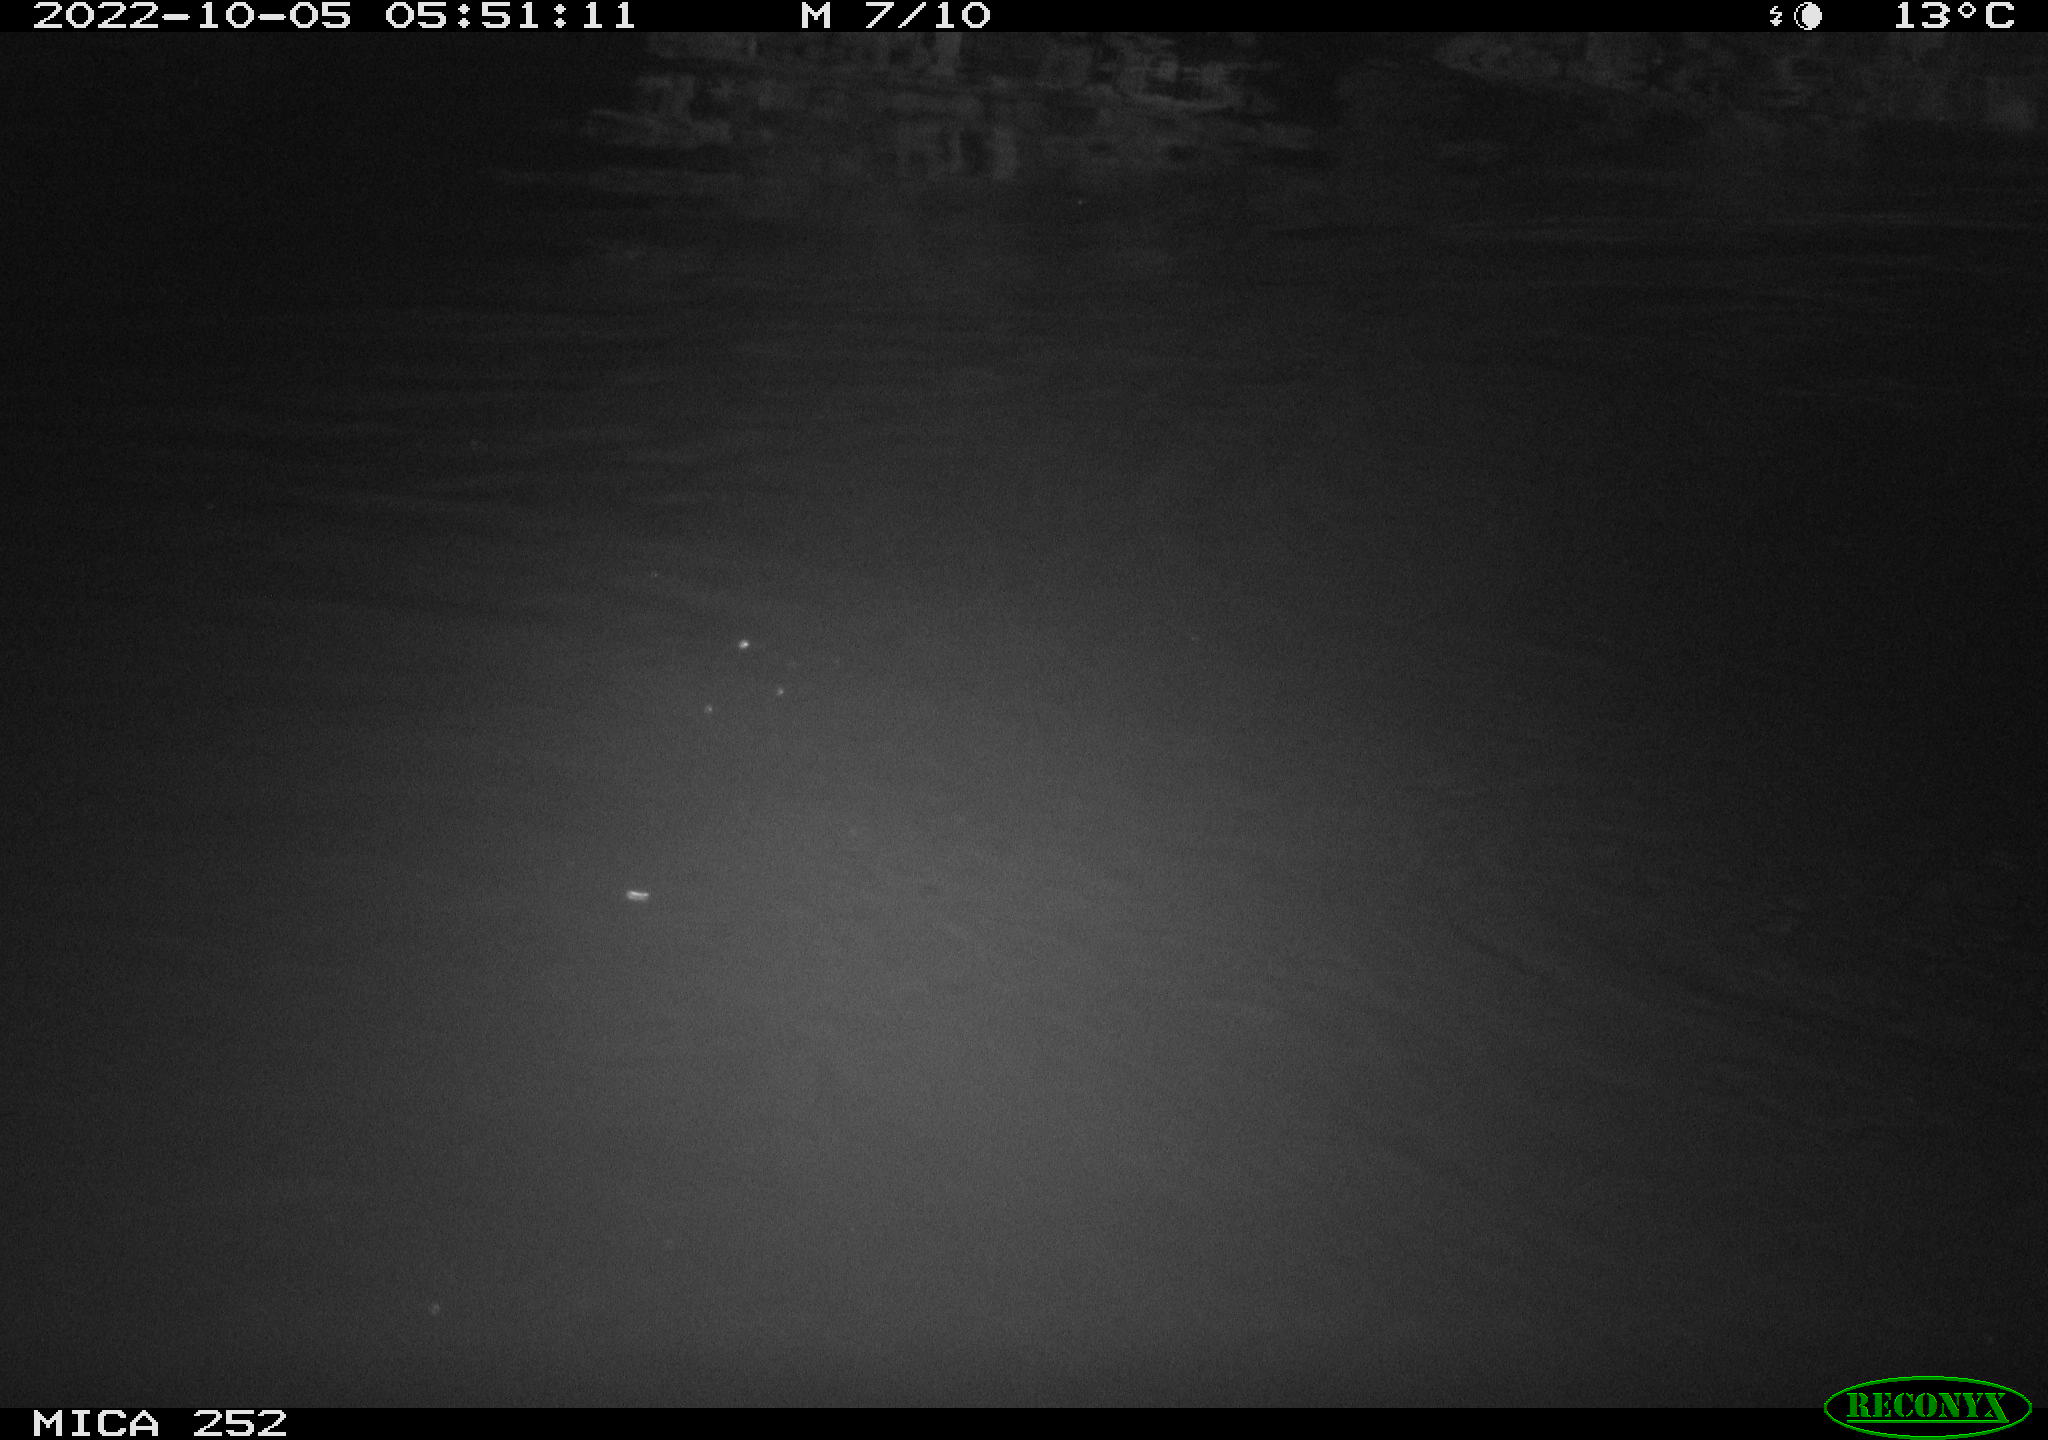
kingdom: Animalia
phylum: Chordata
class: Mammalia
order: Rodentia
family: Castoridae
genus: Castor
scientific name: Castor fiber
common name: Eurasian beaver
